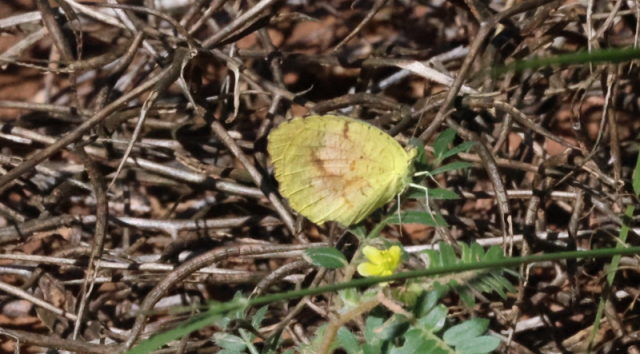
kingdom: Animalia
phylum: Arthropoda
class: Insecta
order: Lepidoptera
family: Pieridae
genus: Abaeis
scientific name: Abaeis nicippe
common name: Sleepy Orange
